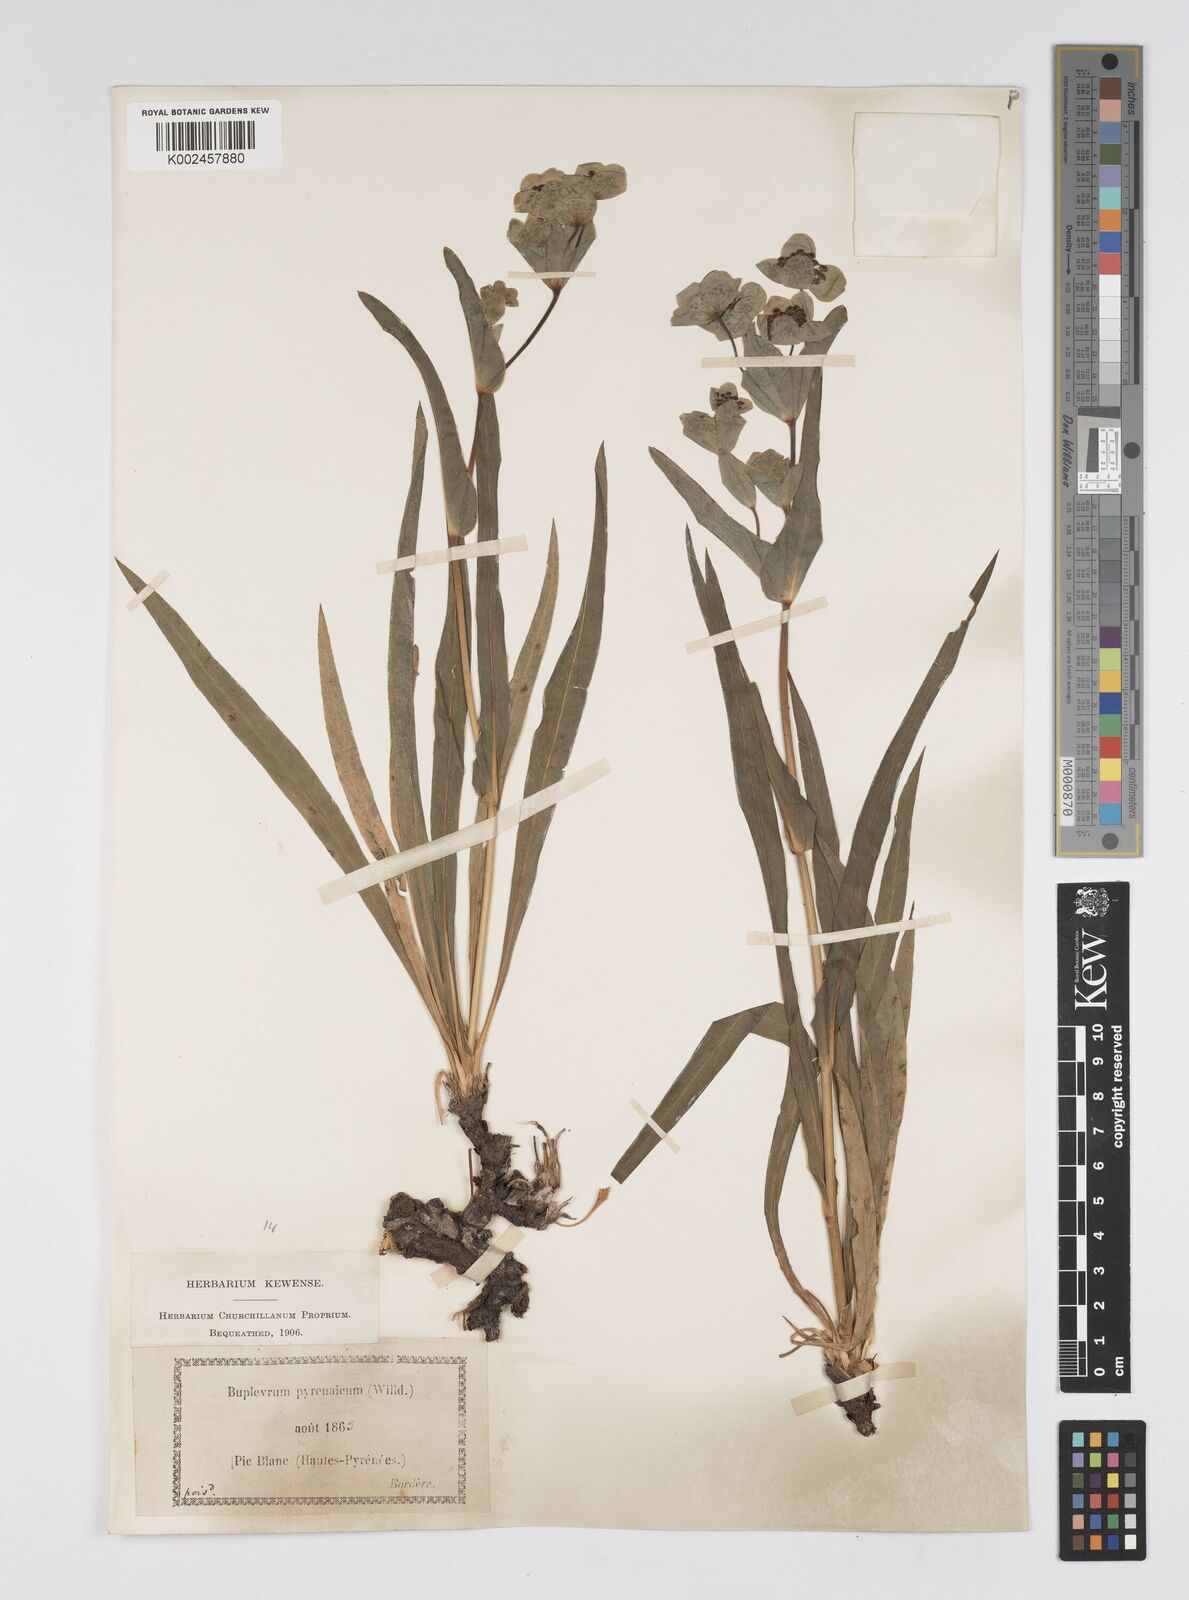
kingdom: Plantae
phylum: Tracheophyta
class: Magnoliopsida
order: Apiales
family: Apiaceae
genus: Bupleurum
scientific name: Bupleurum angulosum
